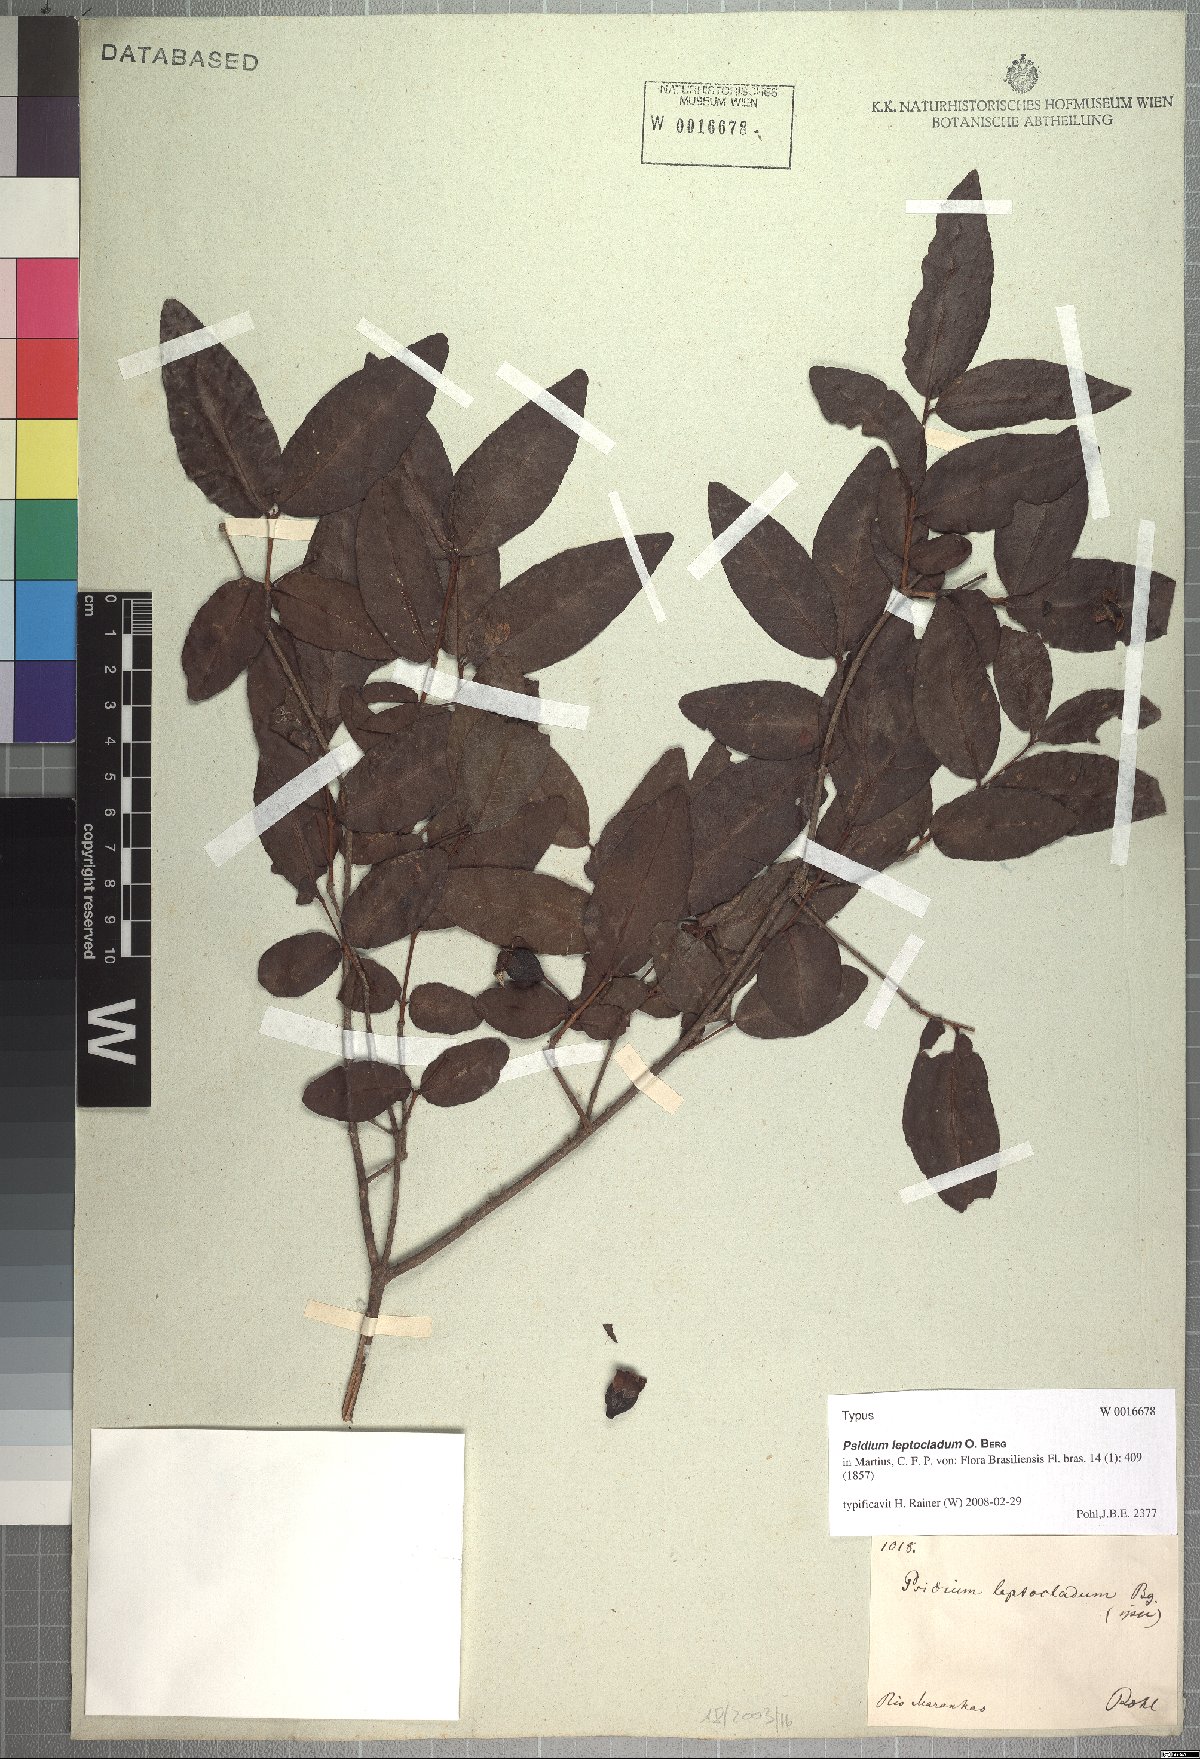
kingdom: Plantae
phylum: Tracheophyta
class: Magnoliopsida
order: Myrtales
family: Myrtaceae
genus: Psidium
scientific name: Psidium striatulum
